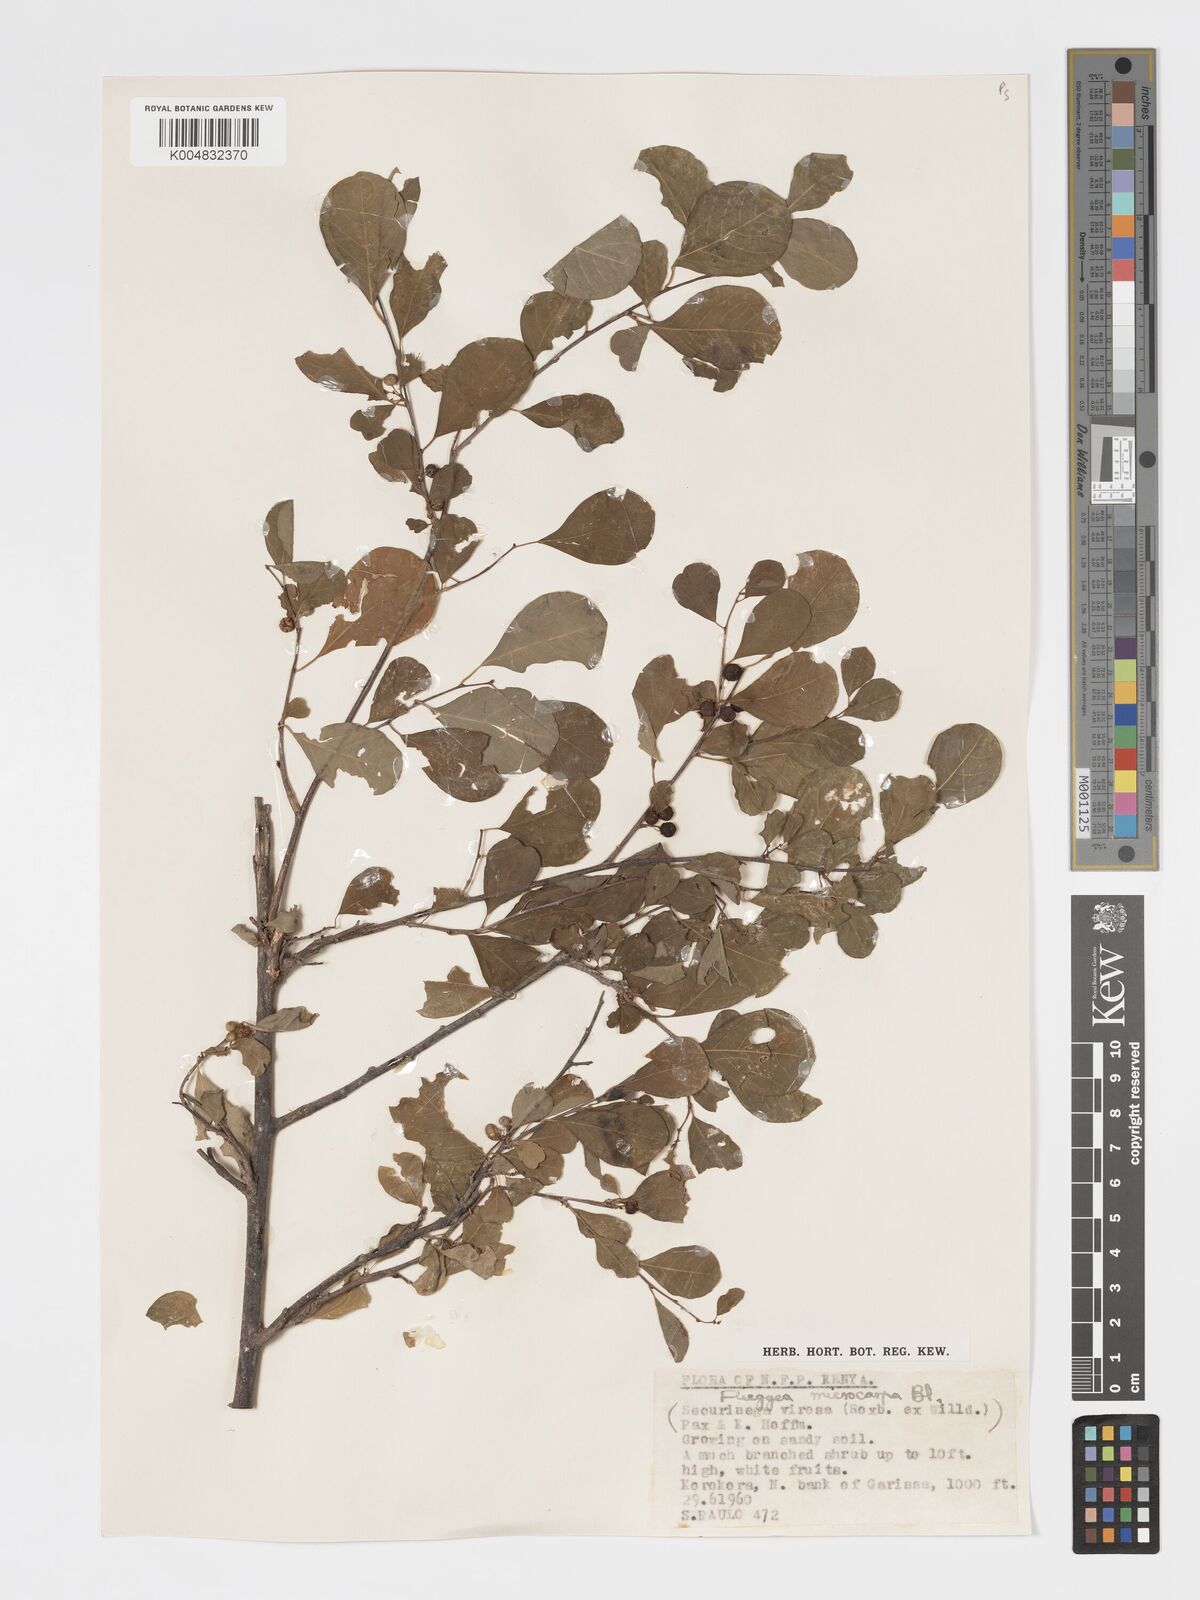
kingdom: Plantae
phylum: Tracheophyta
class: Magnoliopsida
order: Malpighiales
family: Phyllanthaceae
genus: Flueggea
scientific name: Flueggea virosa
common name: Common bushweed
